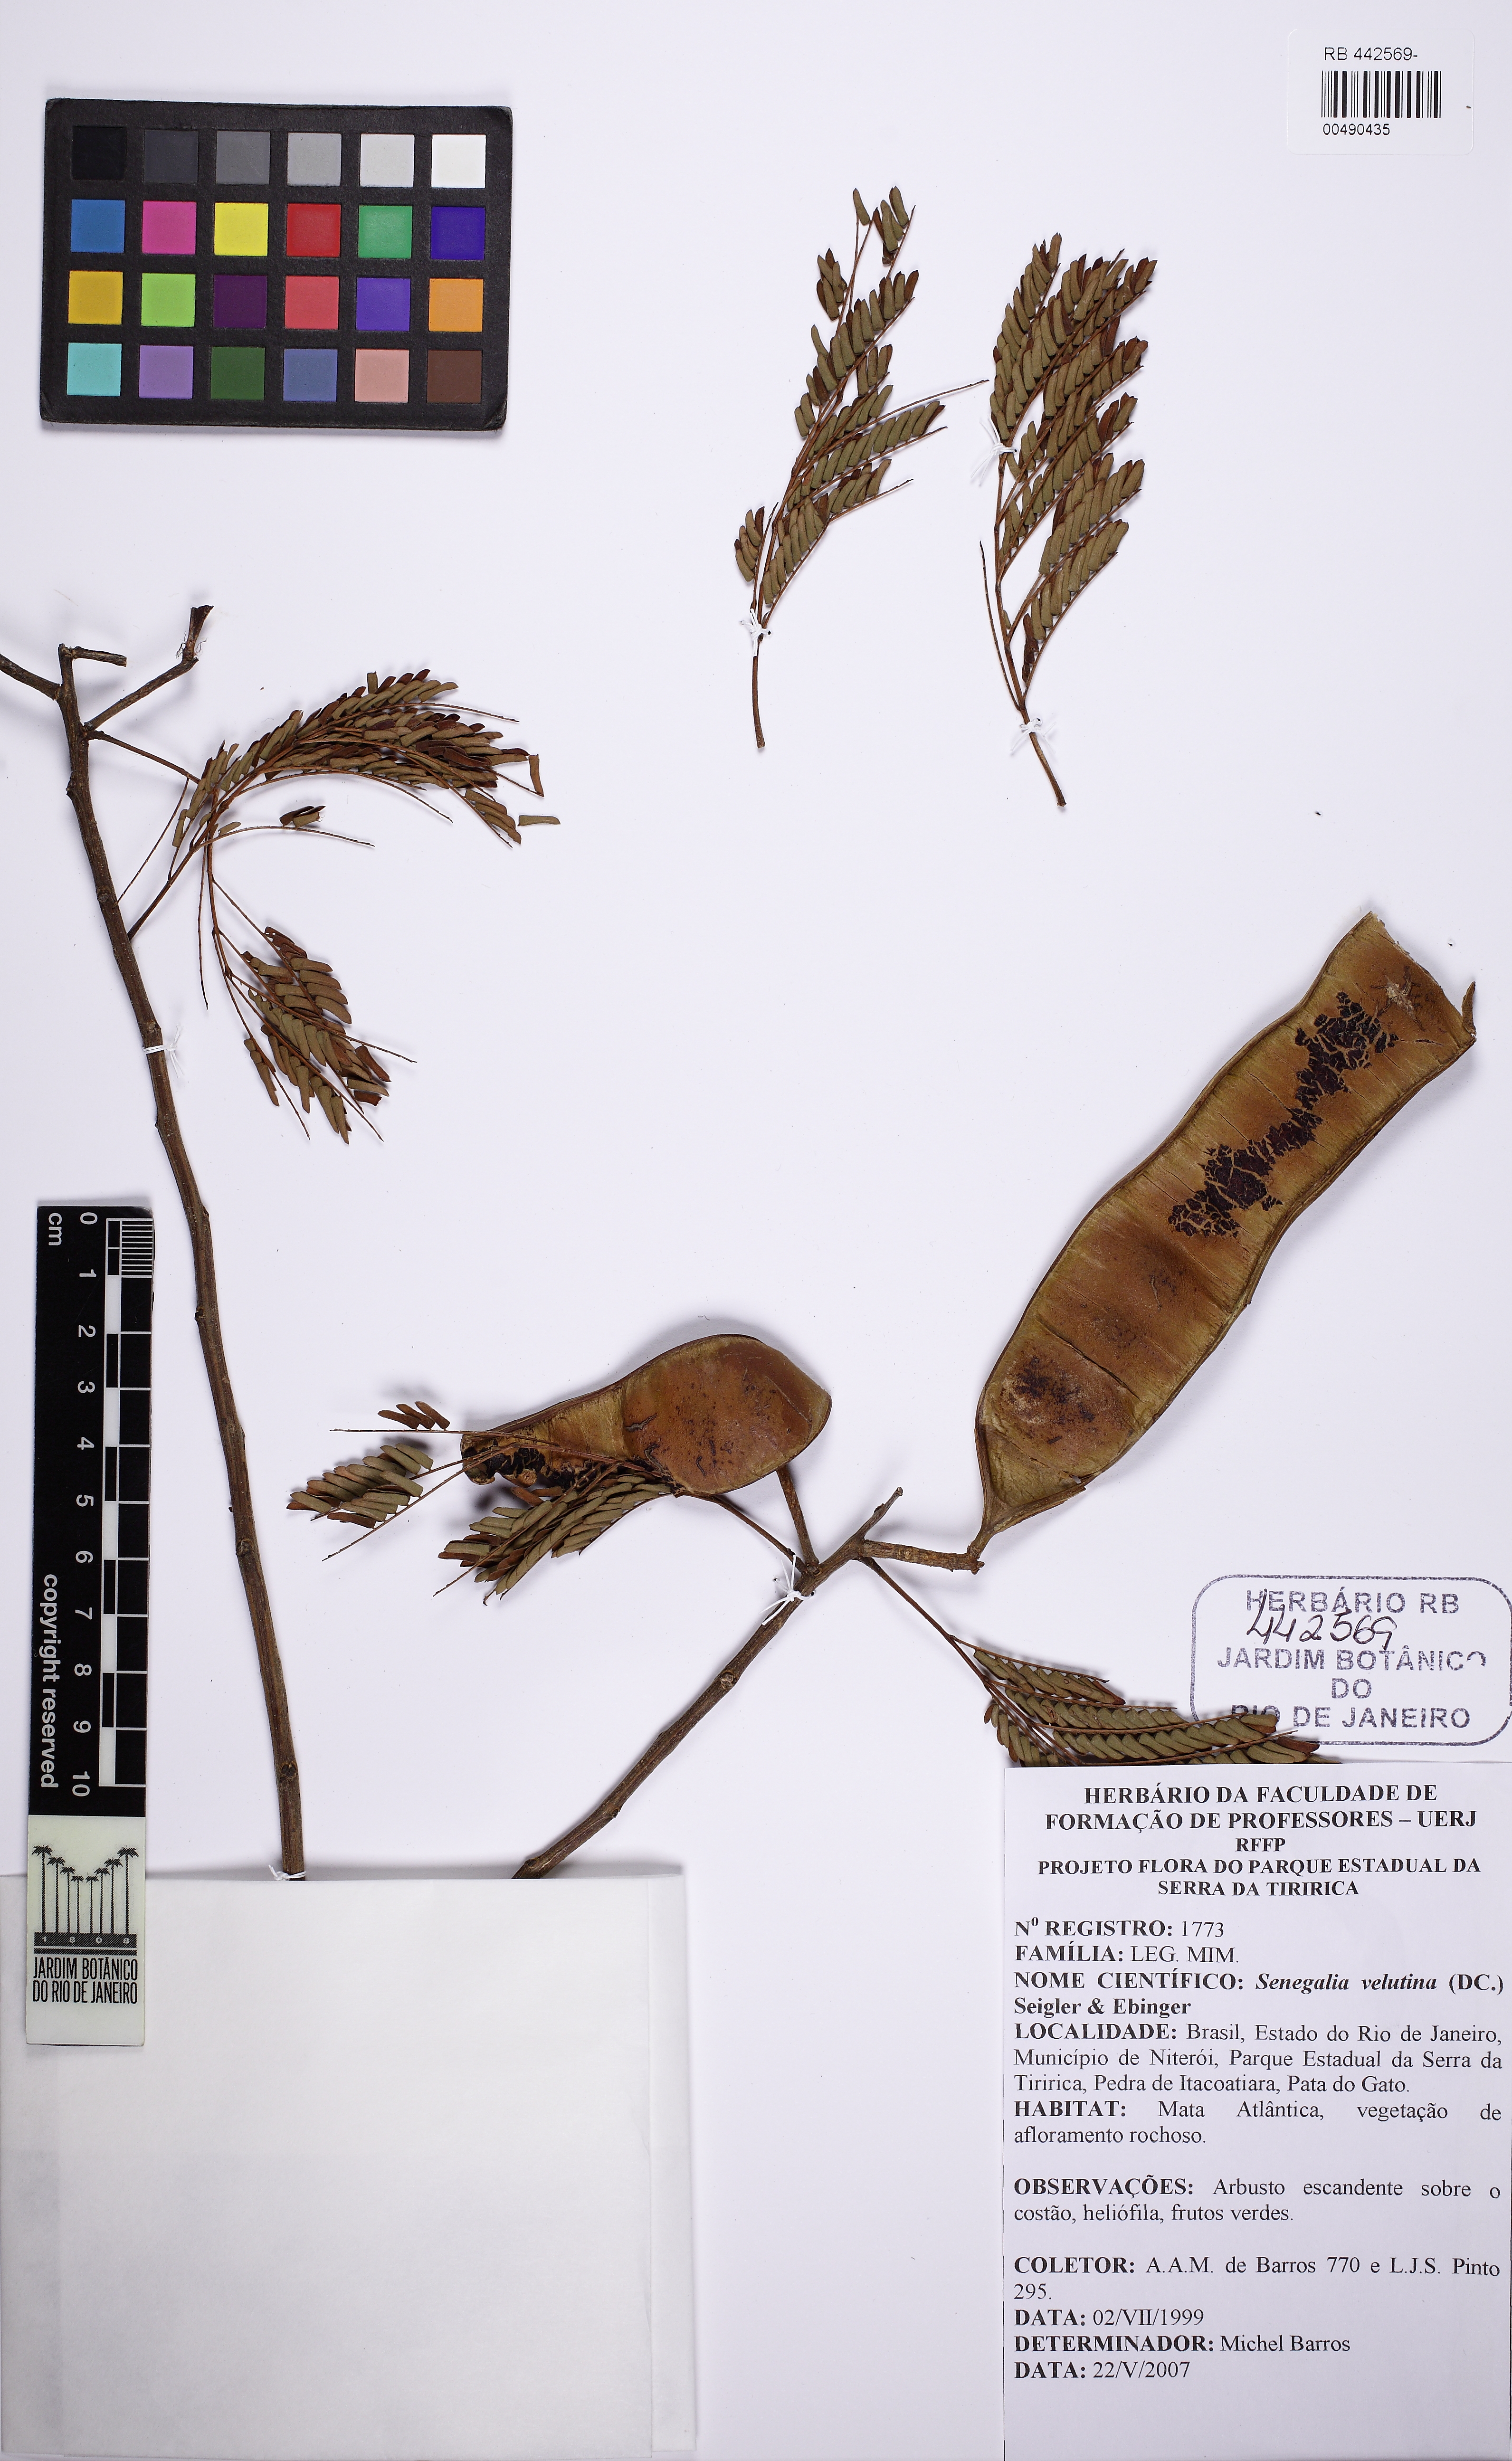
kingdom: Plantae
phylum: Tracheophyta
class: Magnoliopsida
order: Fabales
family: Fabaceae
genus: Senegalia
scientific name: Senegalia velutina
